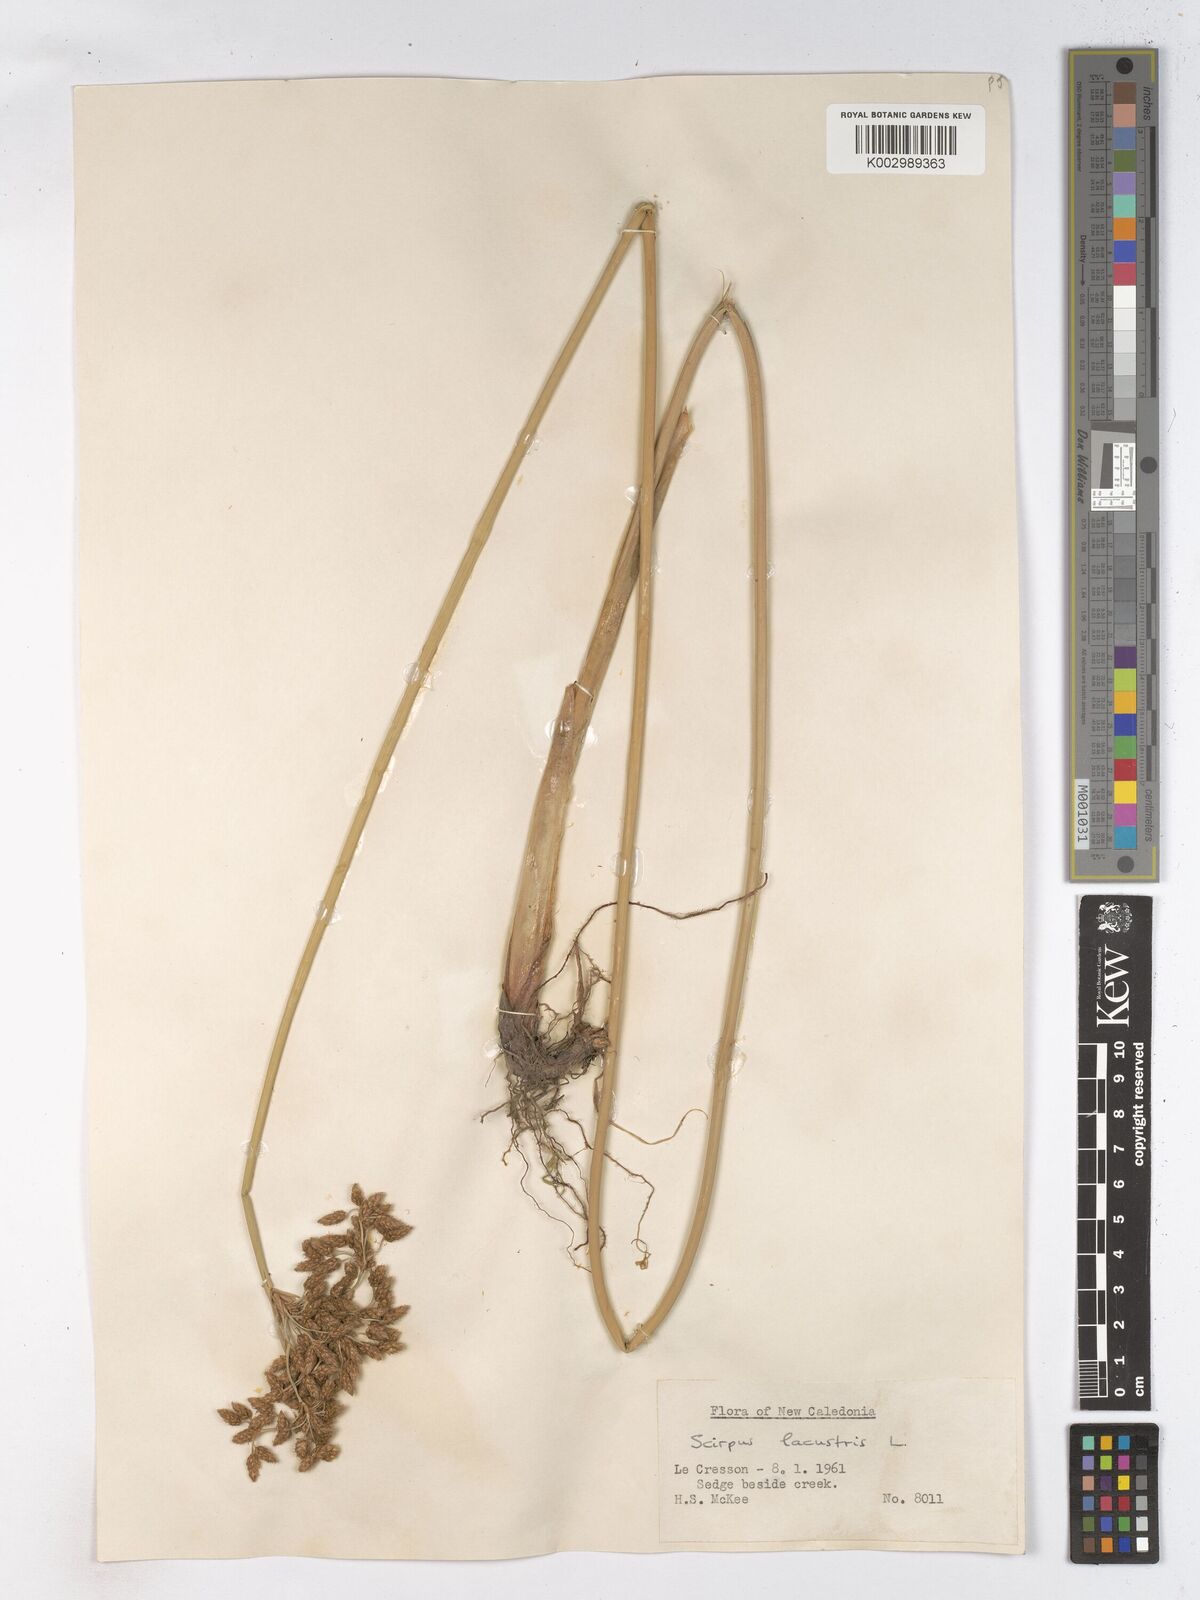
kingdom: Plantae
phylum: Tracheophyta
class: Liliopsida
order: Poales
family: Cyperaceae
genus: Schoenoplectus
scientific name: Schoenoplectus lacustris
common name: Common club-rush
